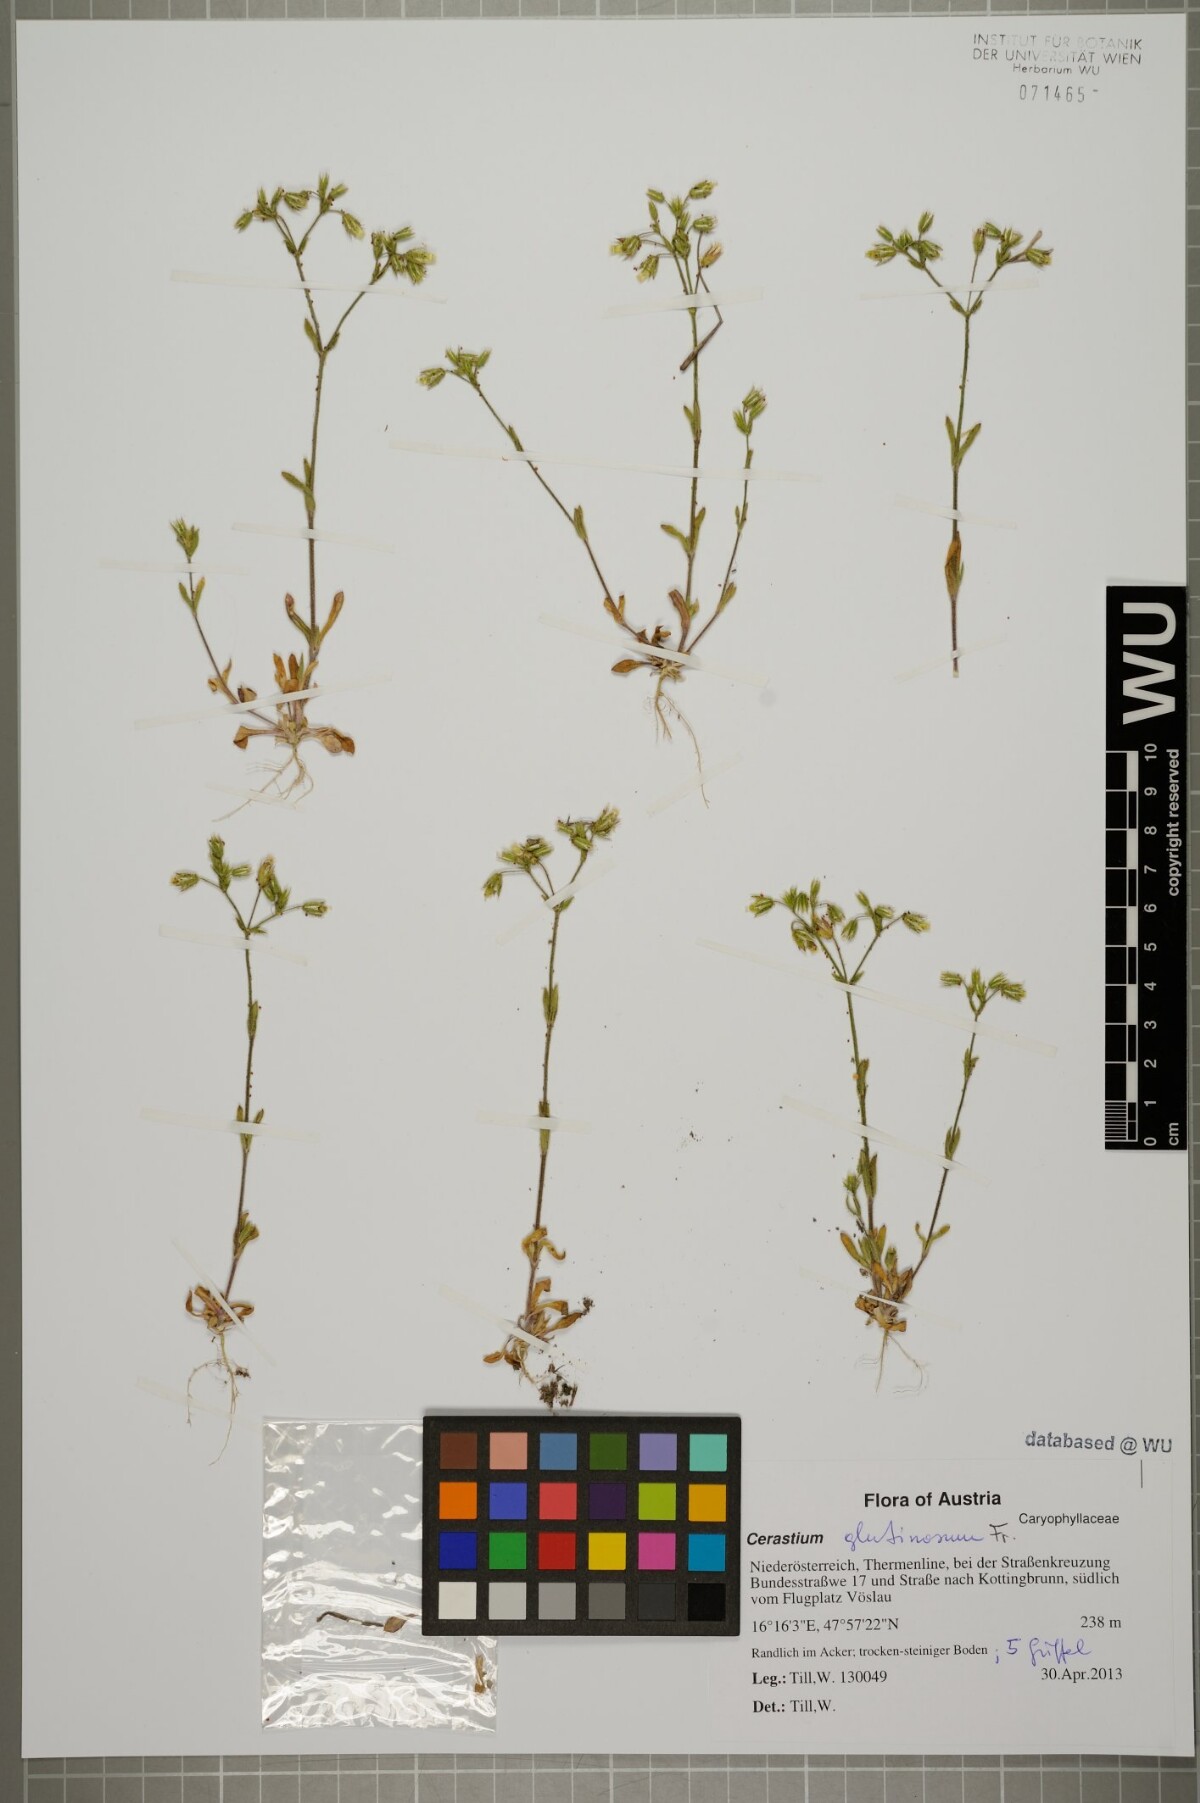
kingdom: Plantae
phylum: Tracheophyta
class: Magnoliopsida
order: Caryophyllales
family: Caryophyllaceae
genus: Cerastium
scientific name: Cerastium pumilum
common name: Dwarf mouse-ear
